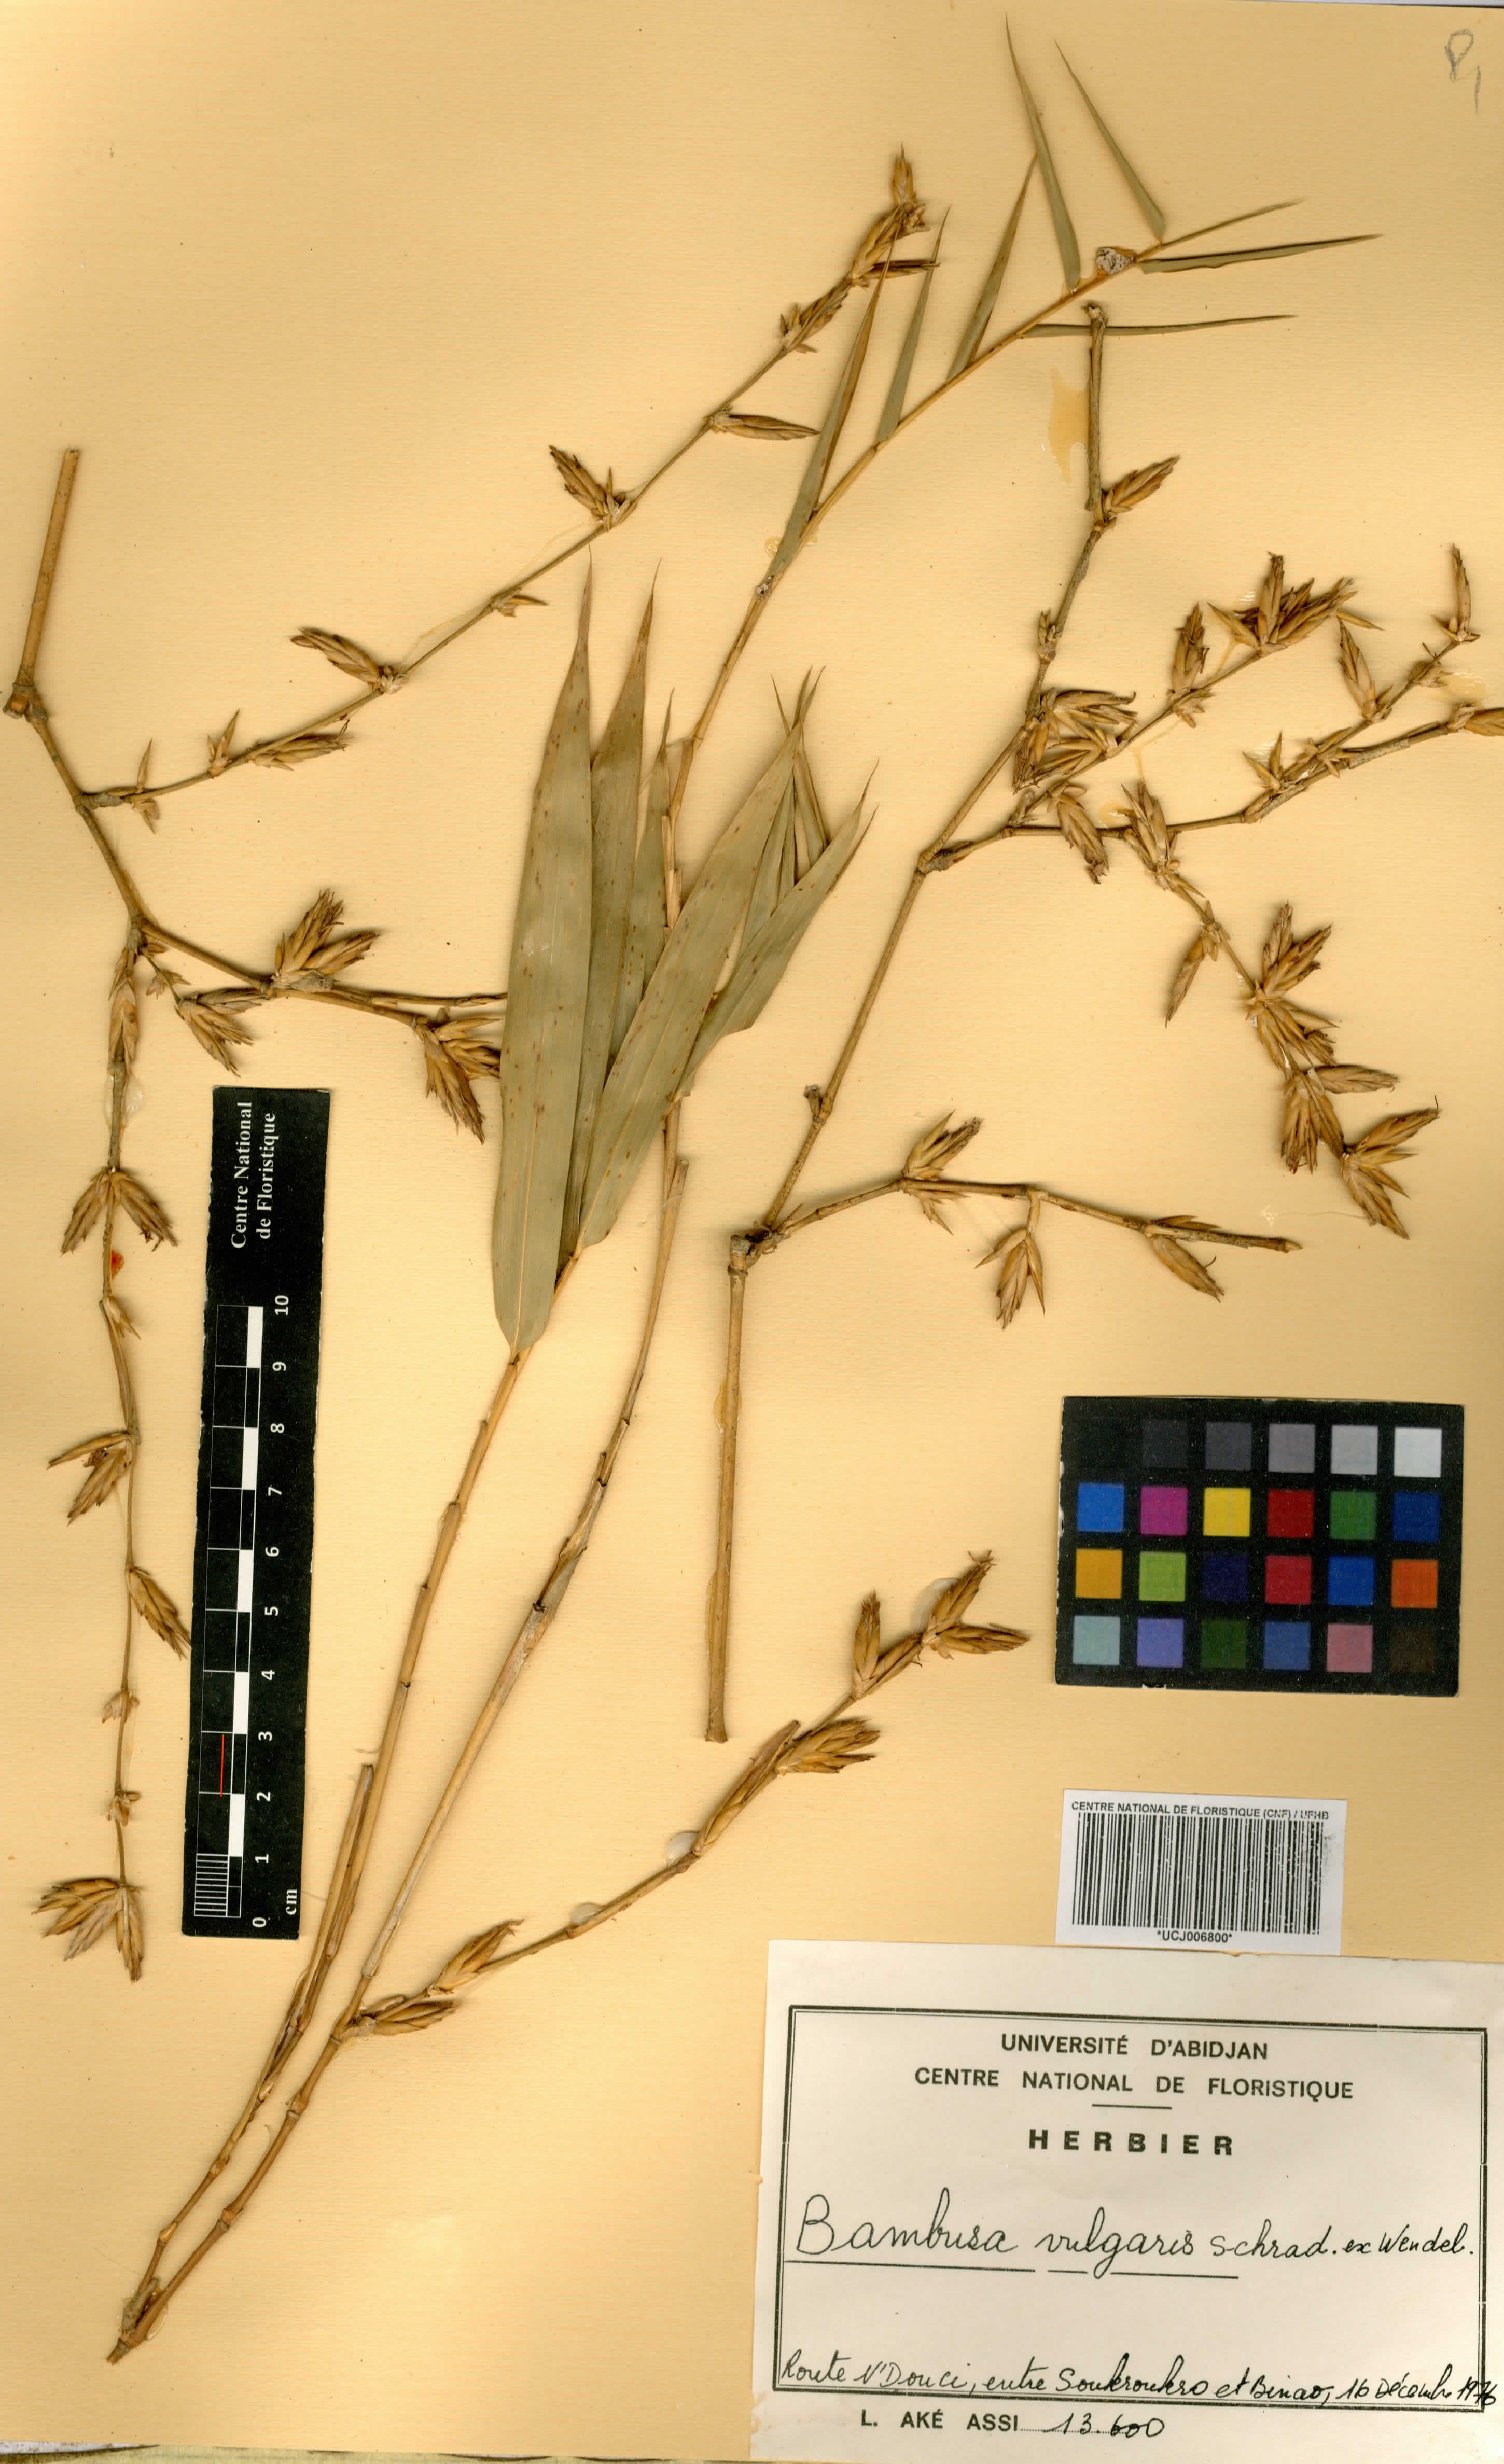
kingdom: Plantae
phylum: Tracheophyta
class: Liliopsida
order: Poales
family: Poaceae
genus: Bambusa
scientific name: Bambusa vulgaris
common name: Common bamboo
